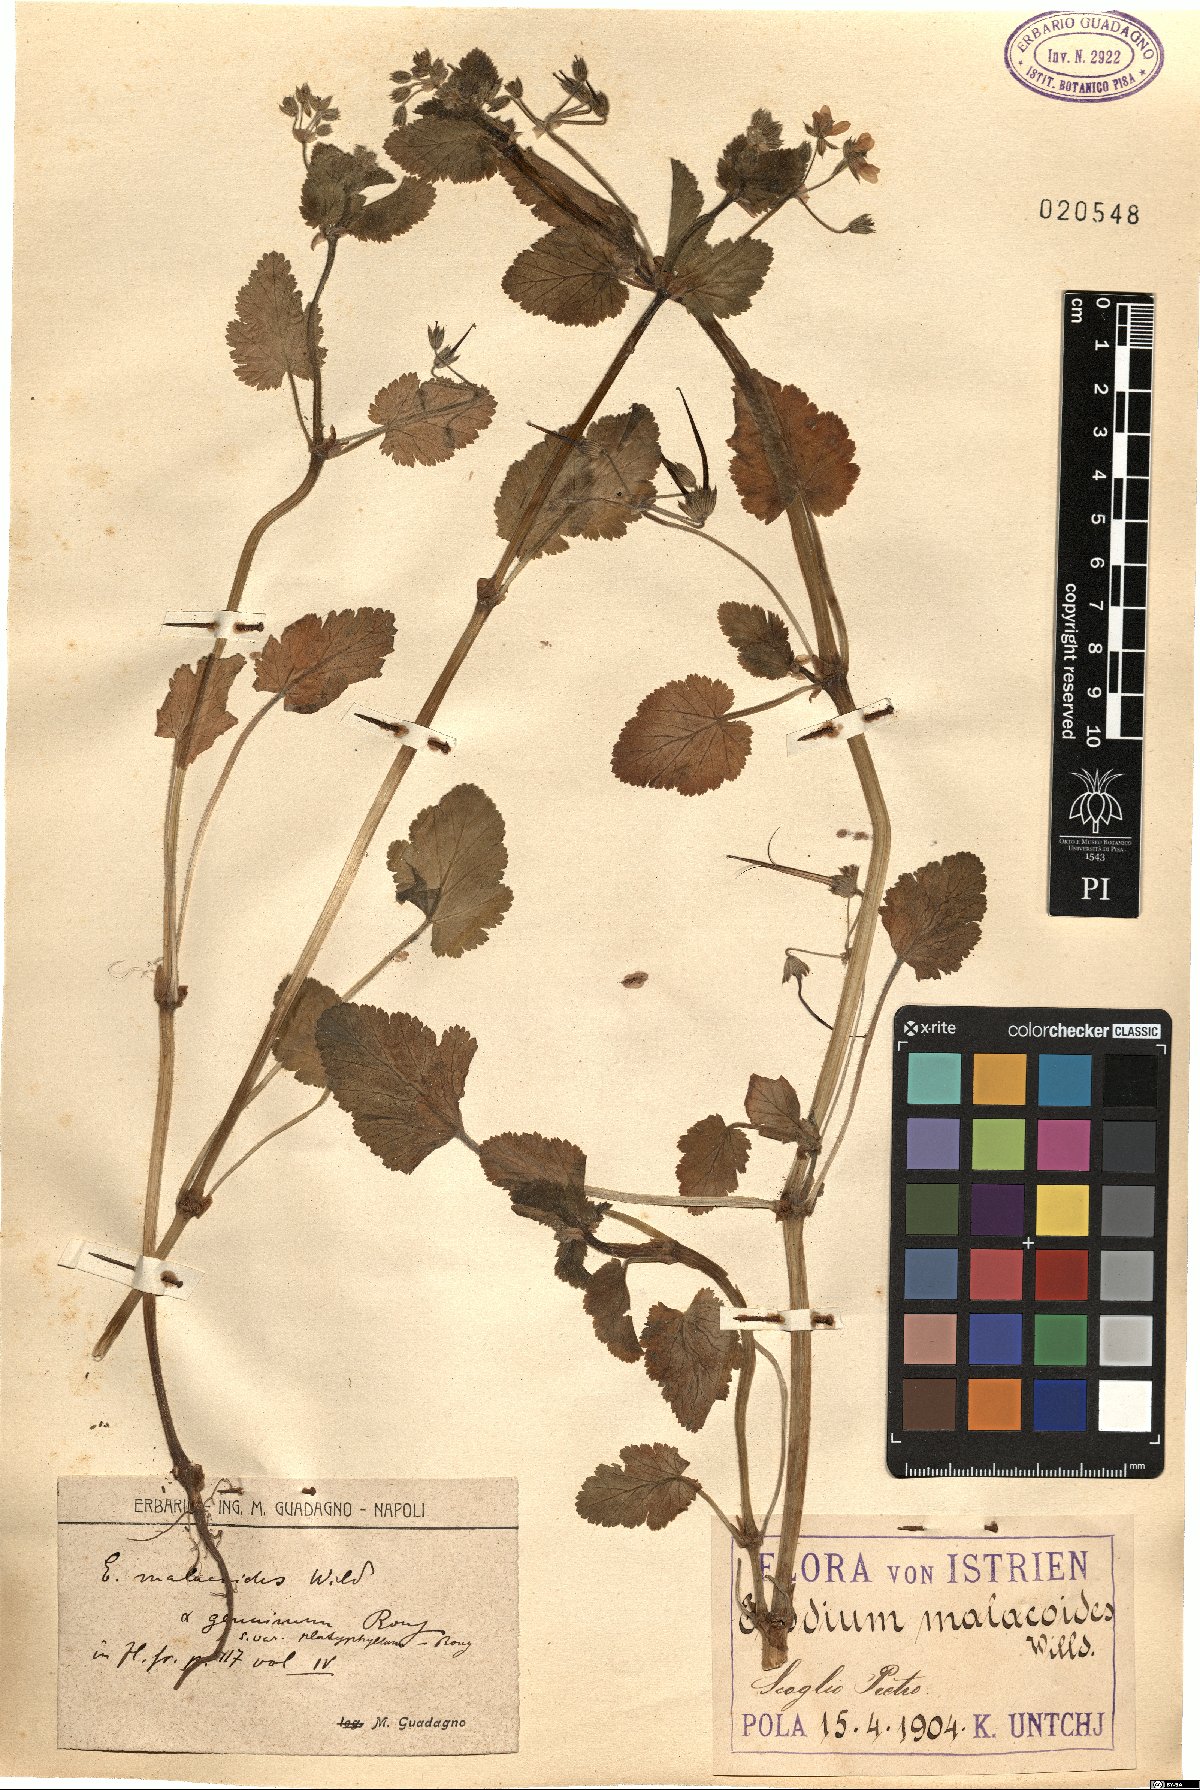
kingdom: Plantae
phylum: Tracheophyta
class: Magnoliopsida
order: Geraniales
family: Geraniaceae
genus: Erodium
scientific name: Erodium malacoides
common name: Soft stork's-bill
